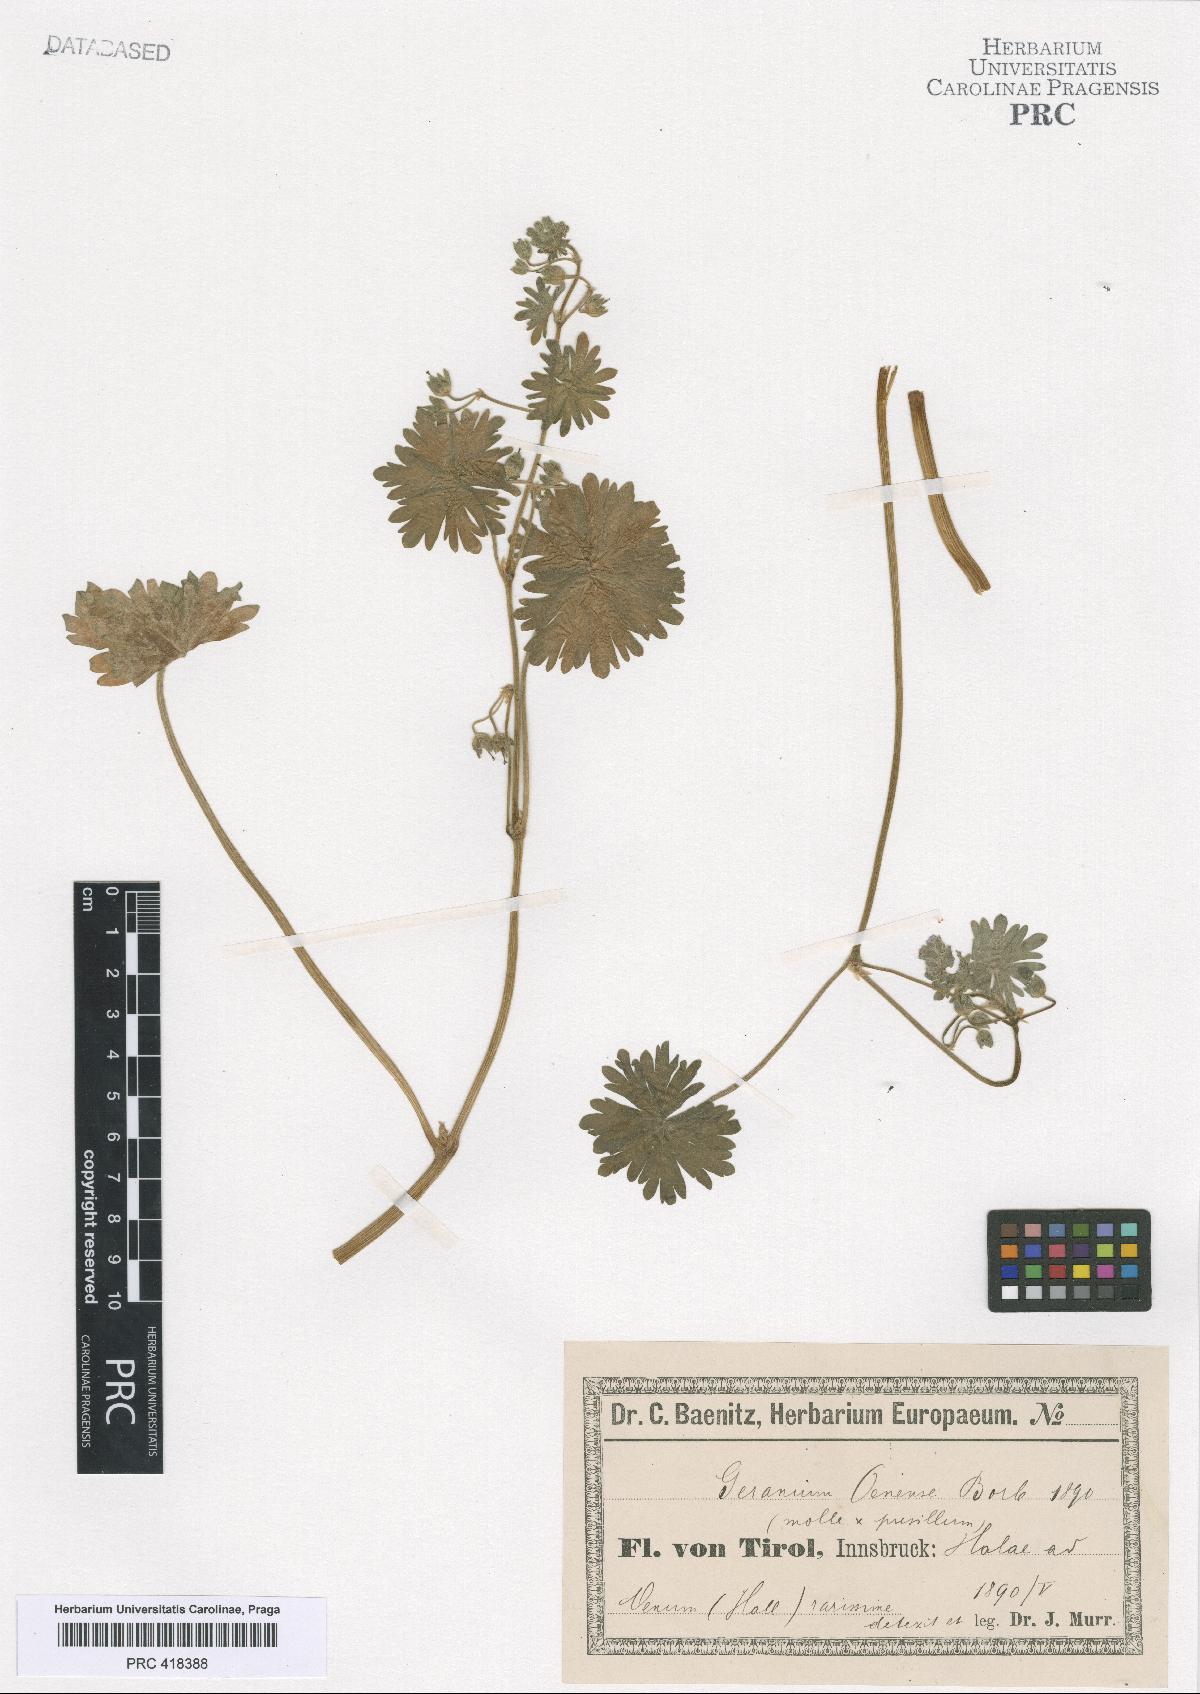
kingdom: Plantae
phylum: Tracheophyta
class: Magnoliopsida
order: Geraniales
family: Geraniaceae
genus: Geranium
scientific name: Geranium molle
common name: Dove's-foot crane's-bill
